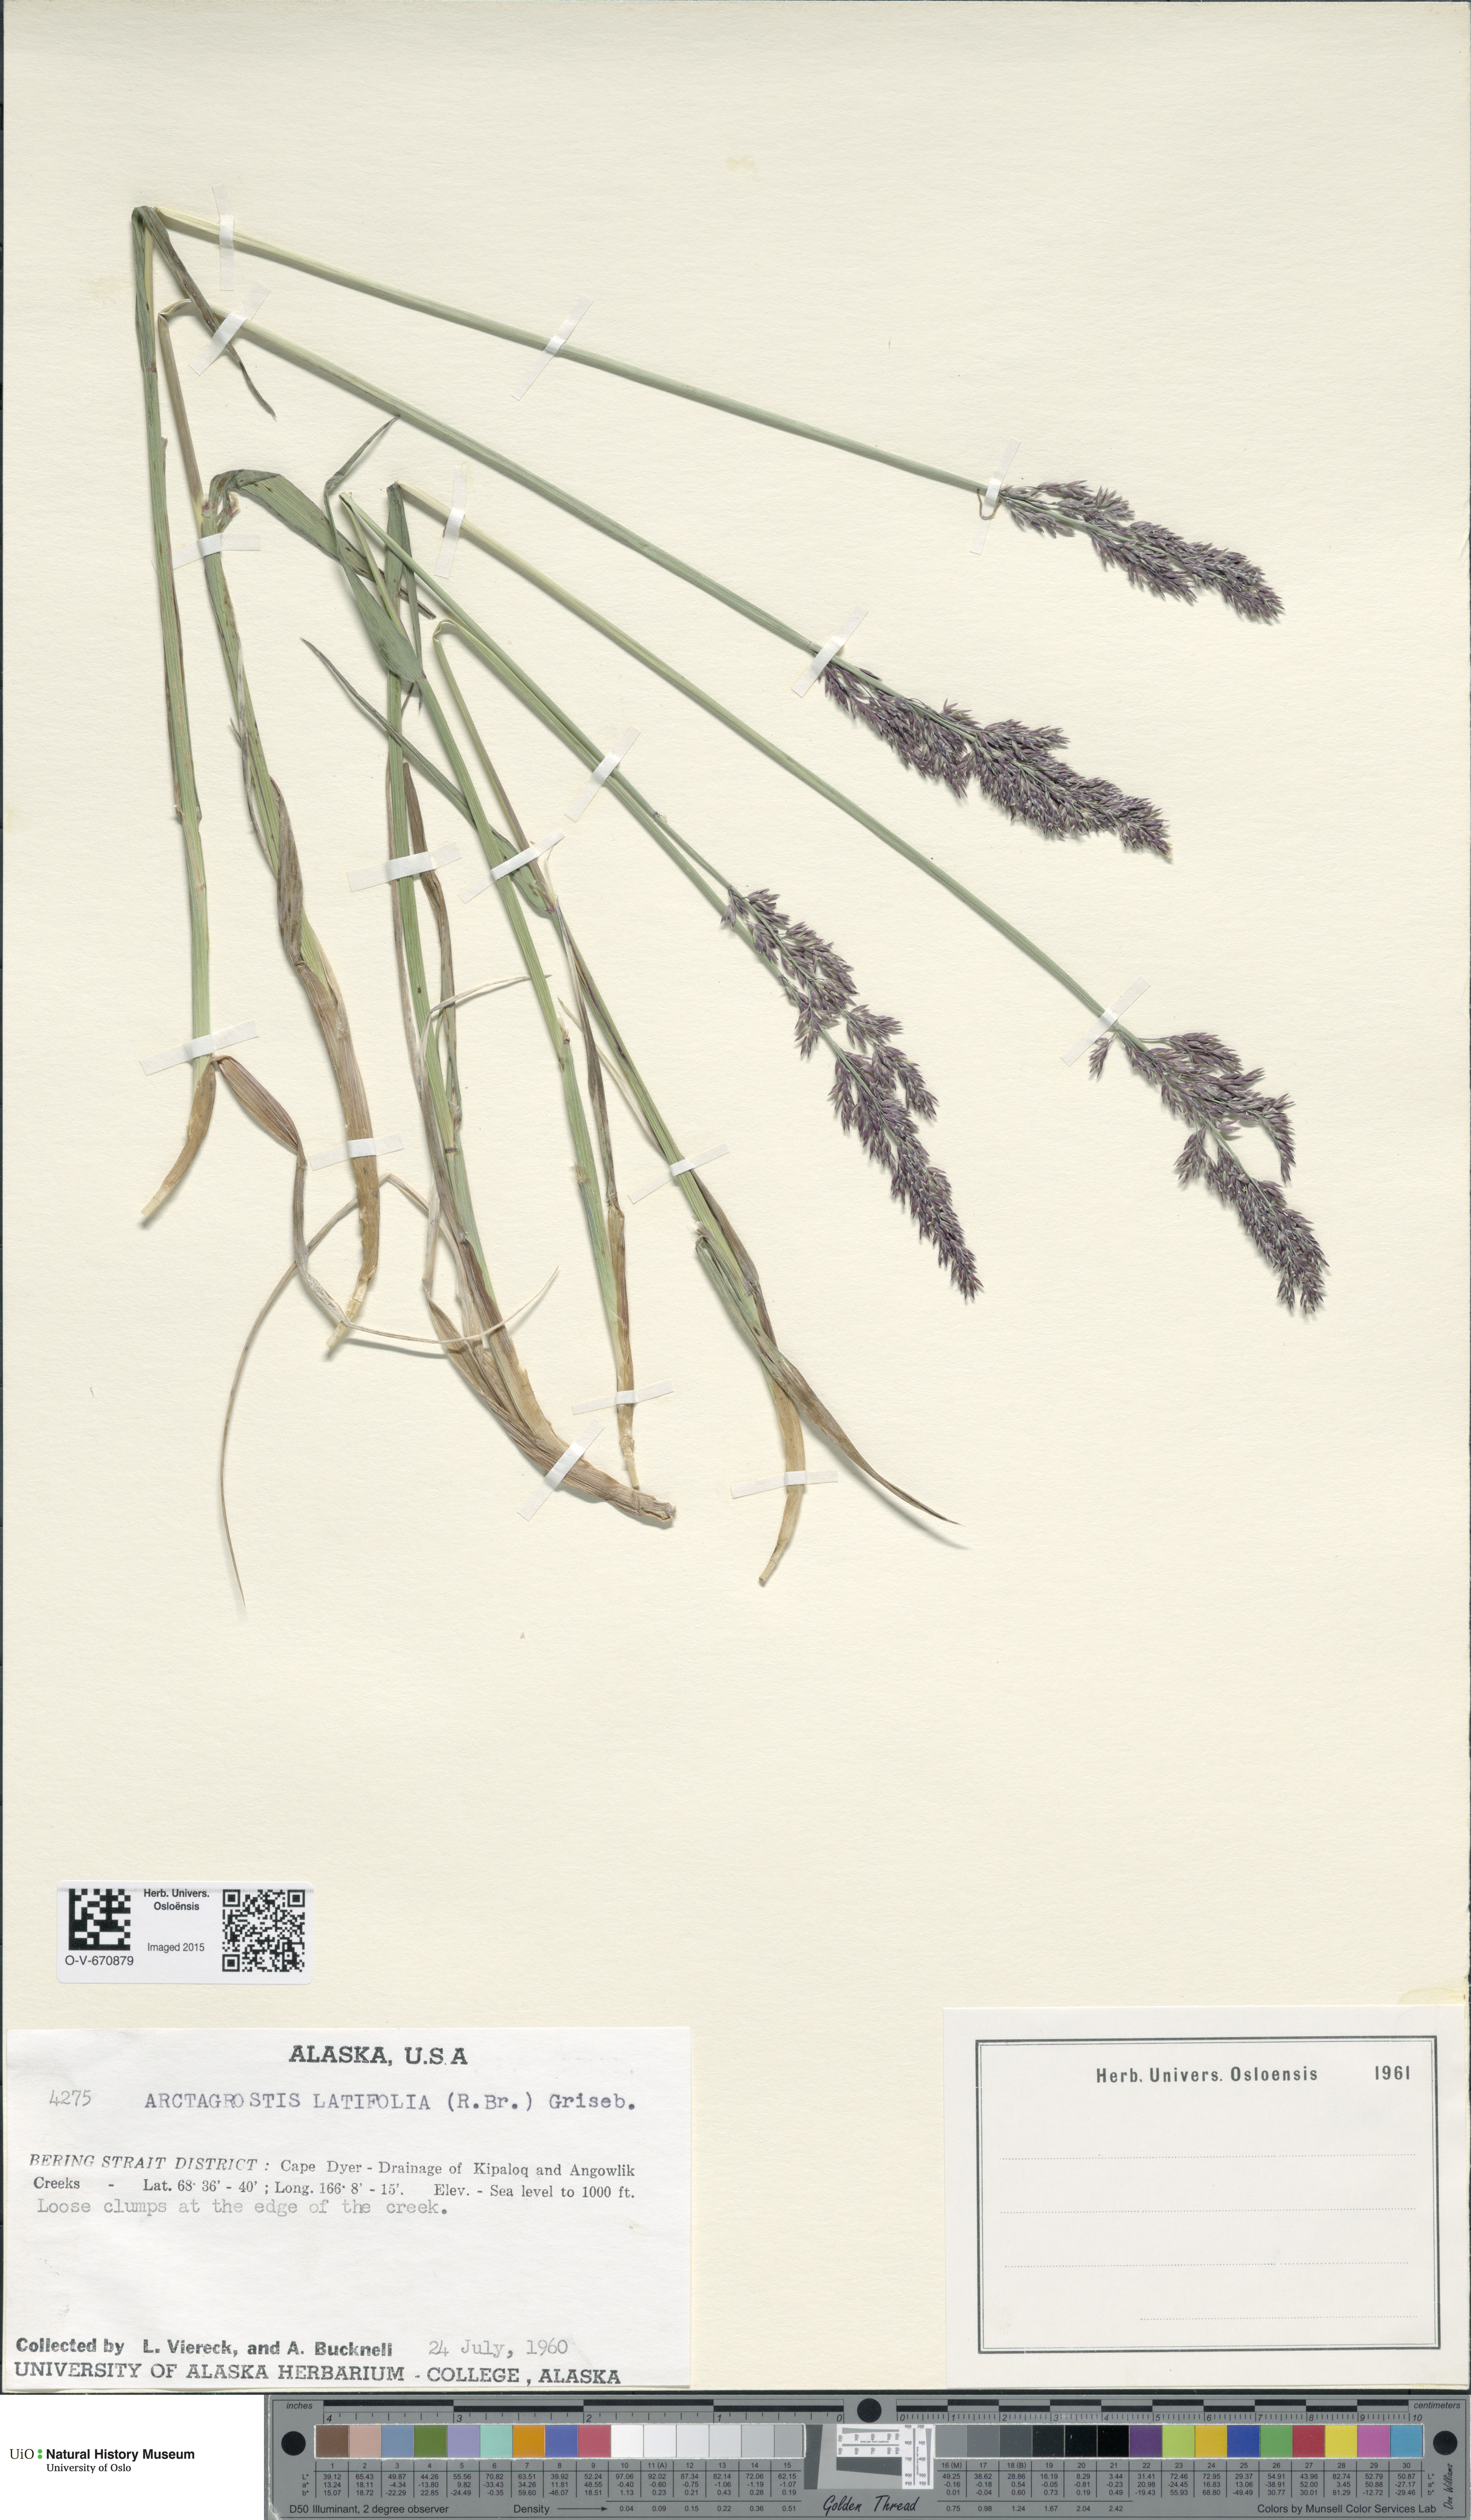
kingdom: Plantae
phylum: Tracheophyta
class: Liliopsida
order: Poales
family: Poaceae
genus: Arctagrostis
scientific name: Arctagrostis latifolia
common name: Arctic grass
